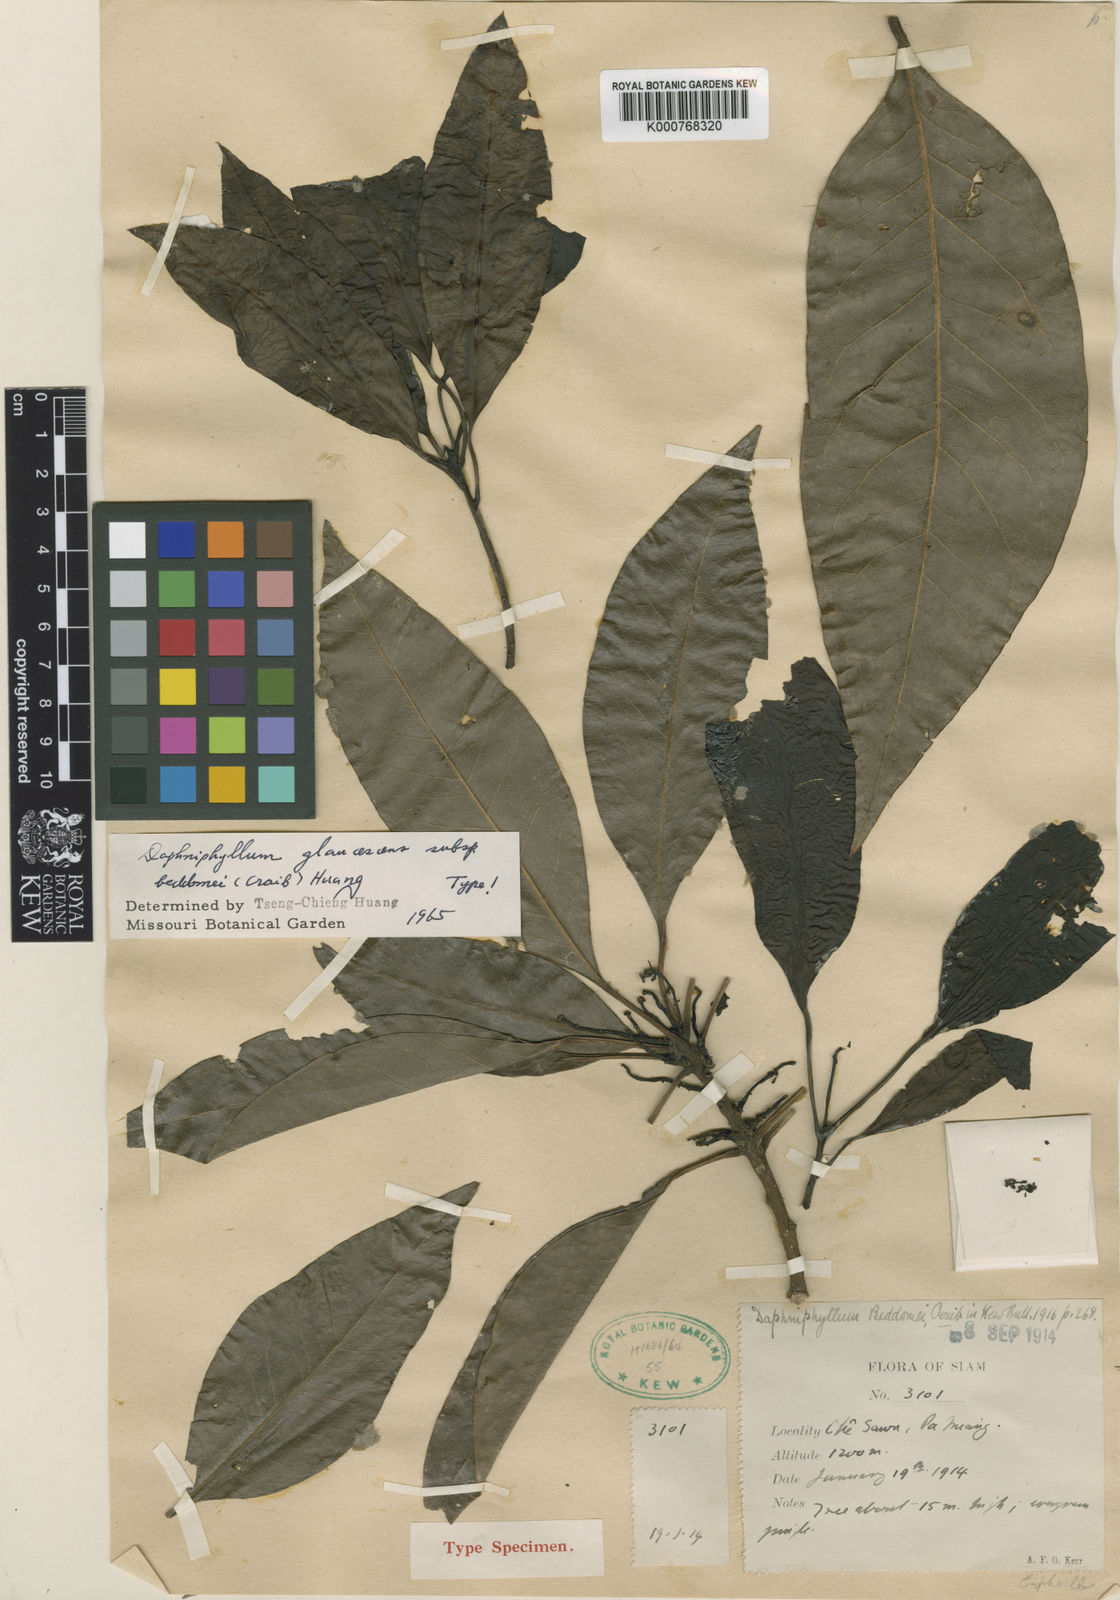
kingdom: Plantae
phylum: Tracheophyta
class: Magnoliopsida
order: Saxifragales
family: Daphniphyllaceae
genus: Daphniphyllum
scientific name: Daphniphyllum beddomei
